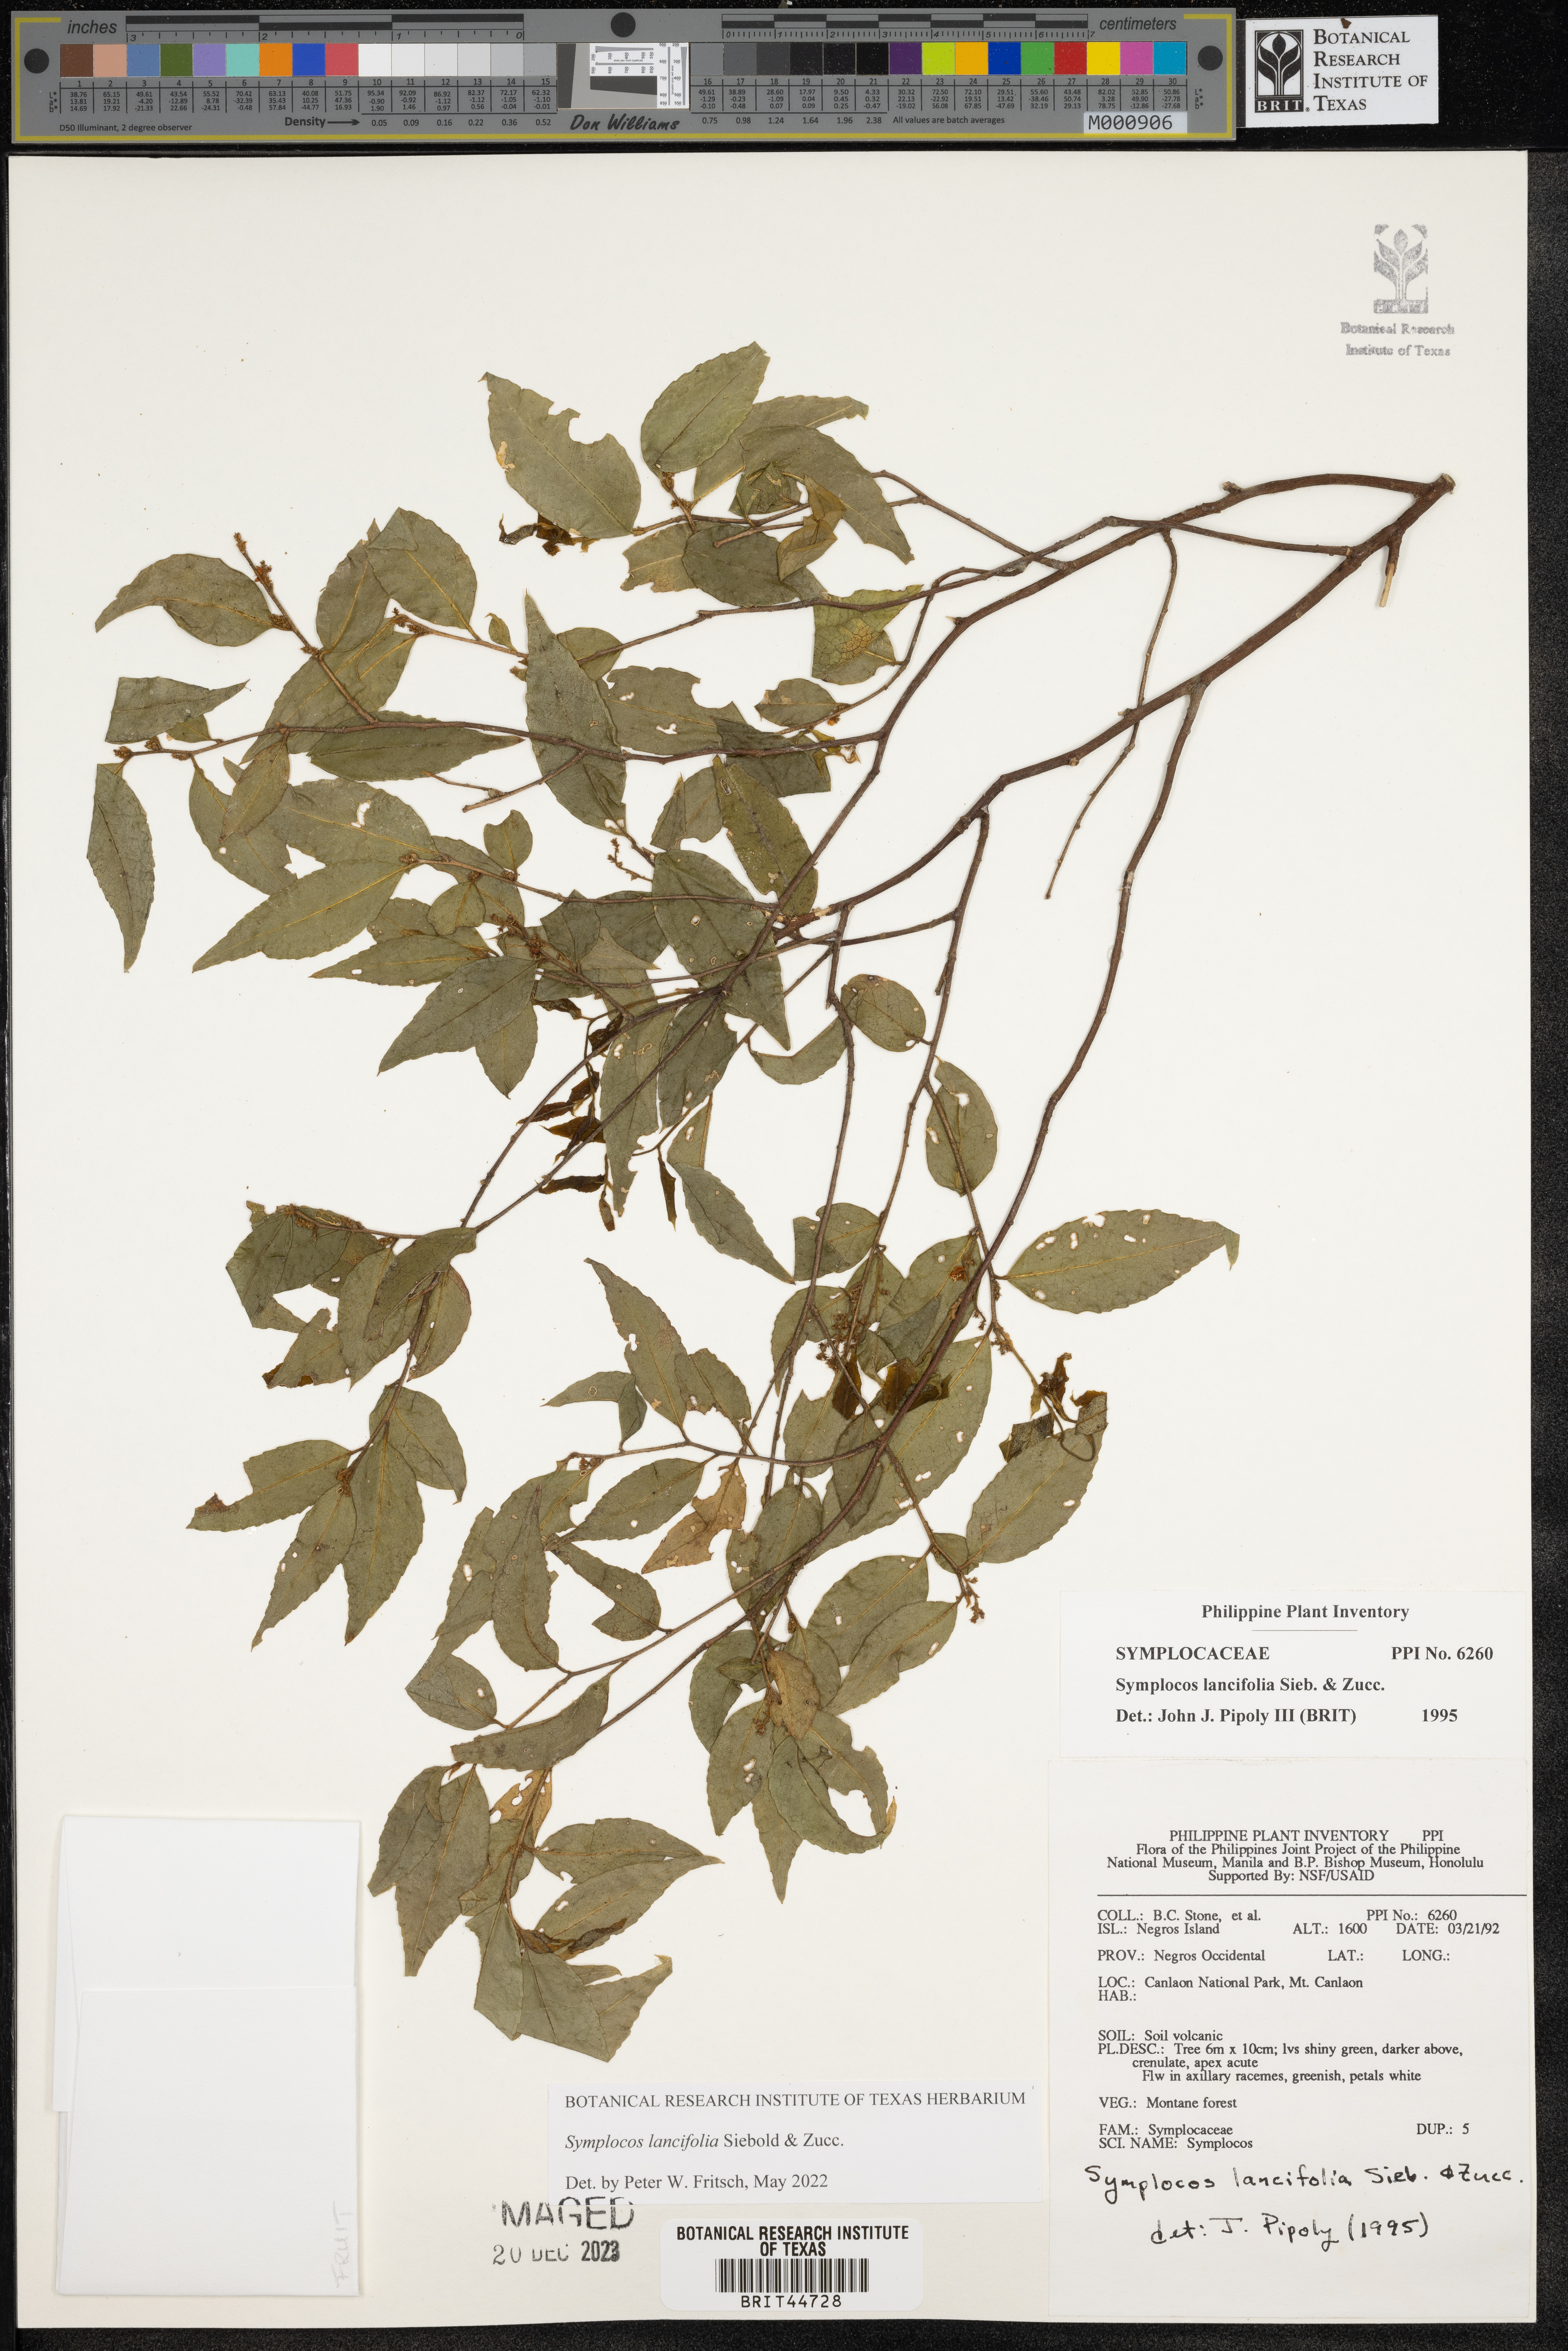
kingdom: Plantae
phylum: Tracheophyta
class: Magnoliopsida
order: Ericales
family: Symplocaceae
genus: Symplocos
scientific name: Symplocos lancifolia
